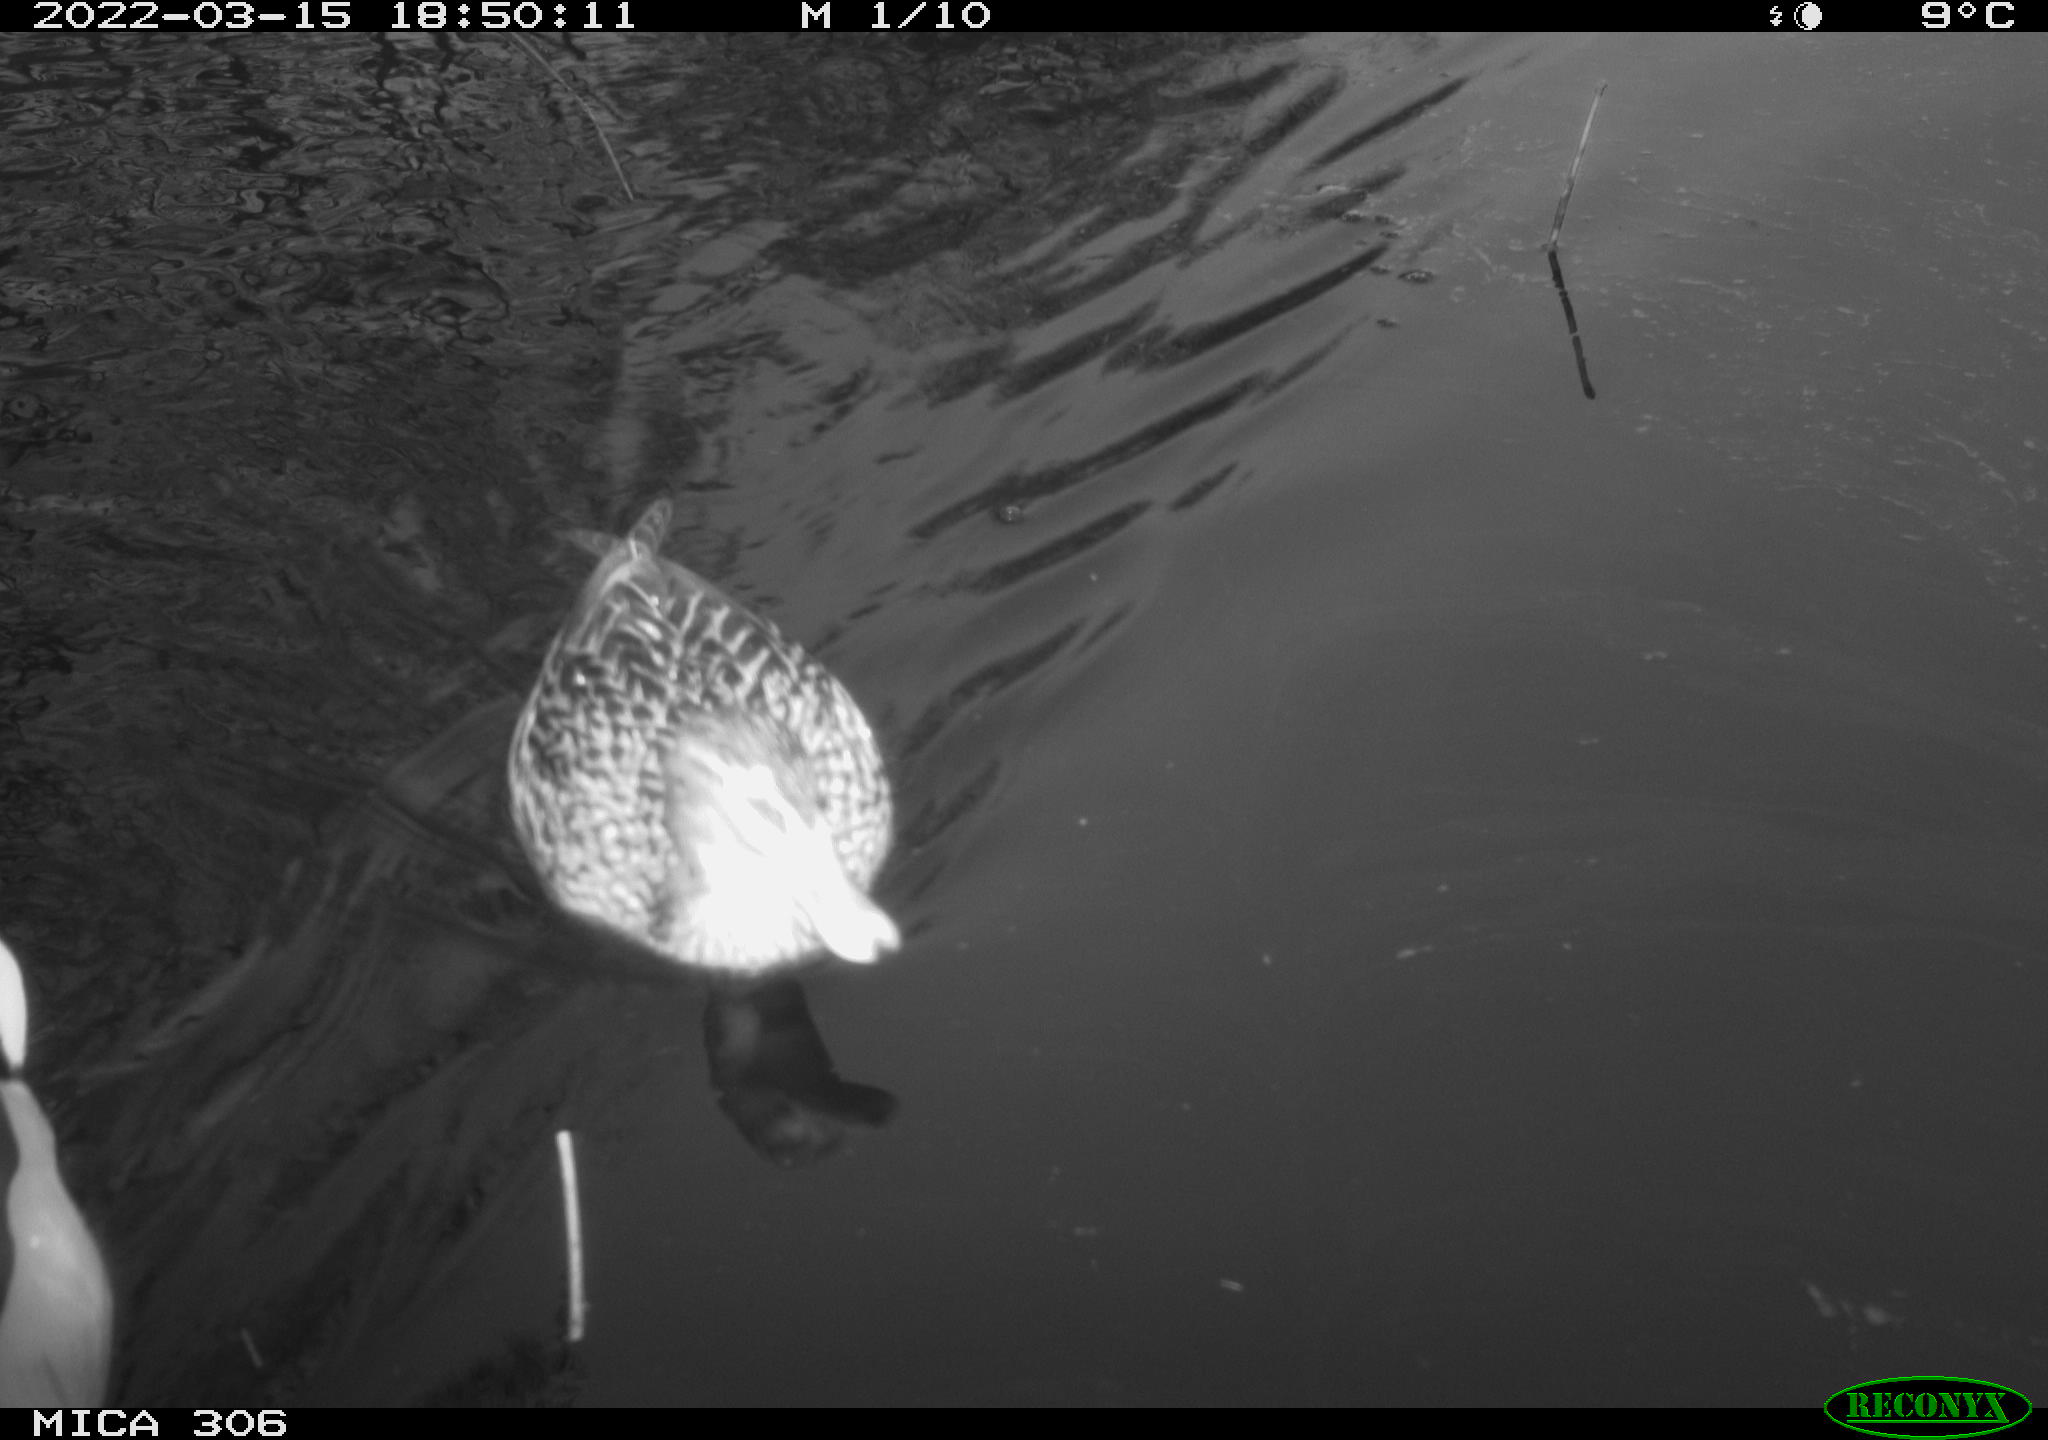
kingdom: Animalia
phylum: Chordata
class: Aves
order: Anseriformes
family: Anatidae
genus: Anas
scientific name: Anas platyrhynchos
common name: Mallard
